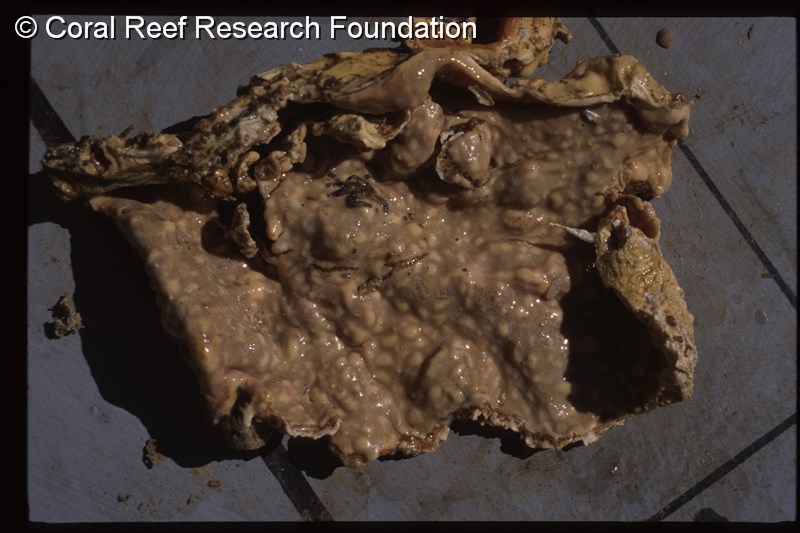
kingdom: Animalia
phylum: Chordata
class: Ascidiacea
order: Aplousobranchia
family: Didemnidae
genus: Didemnum
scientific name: Didemnum obscurum
